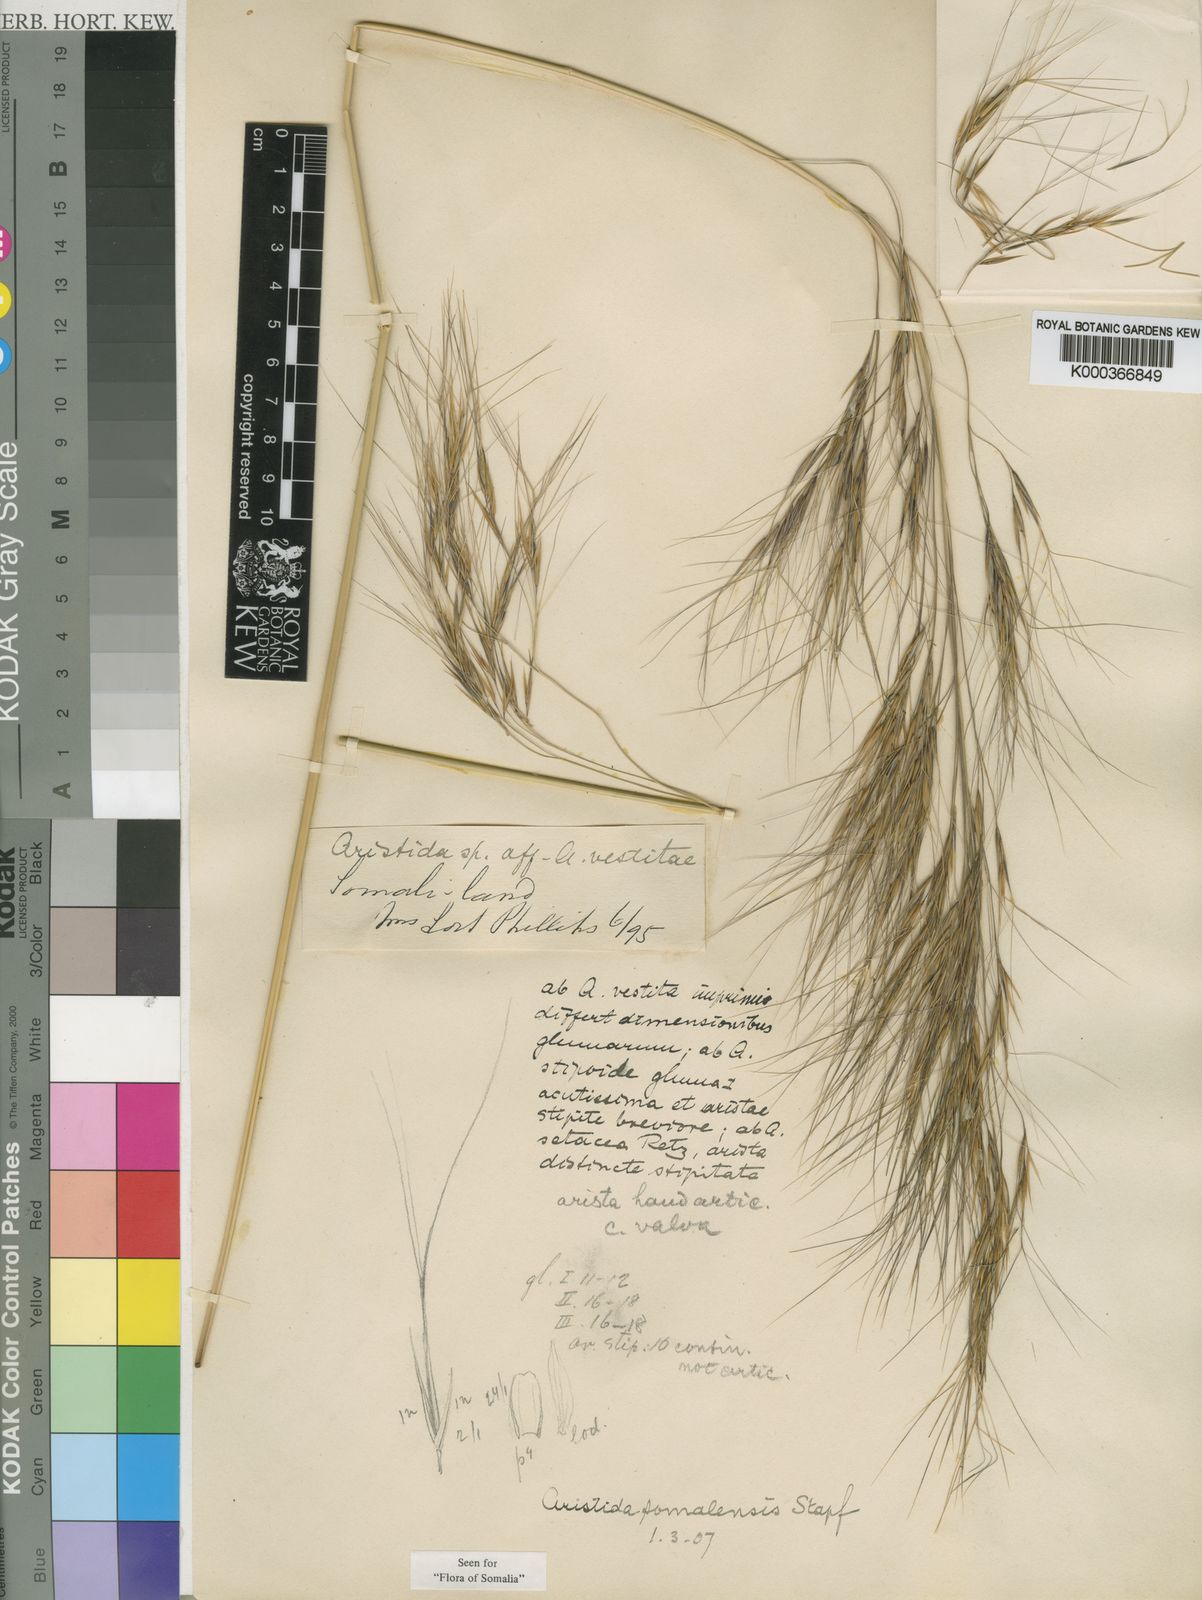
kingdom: Plantae
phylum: Tracheophyta
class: Liliopsida
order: Poales
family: Poaceae
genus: Aristida
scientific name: Aristida somalensis
